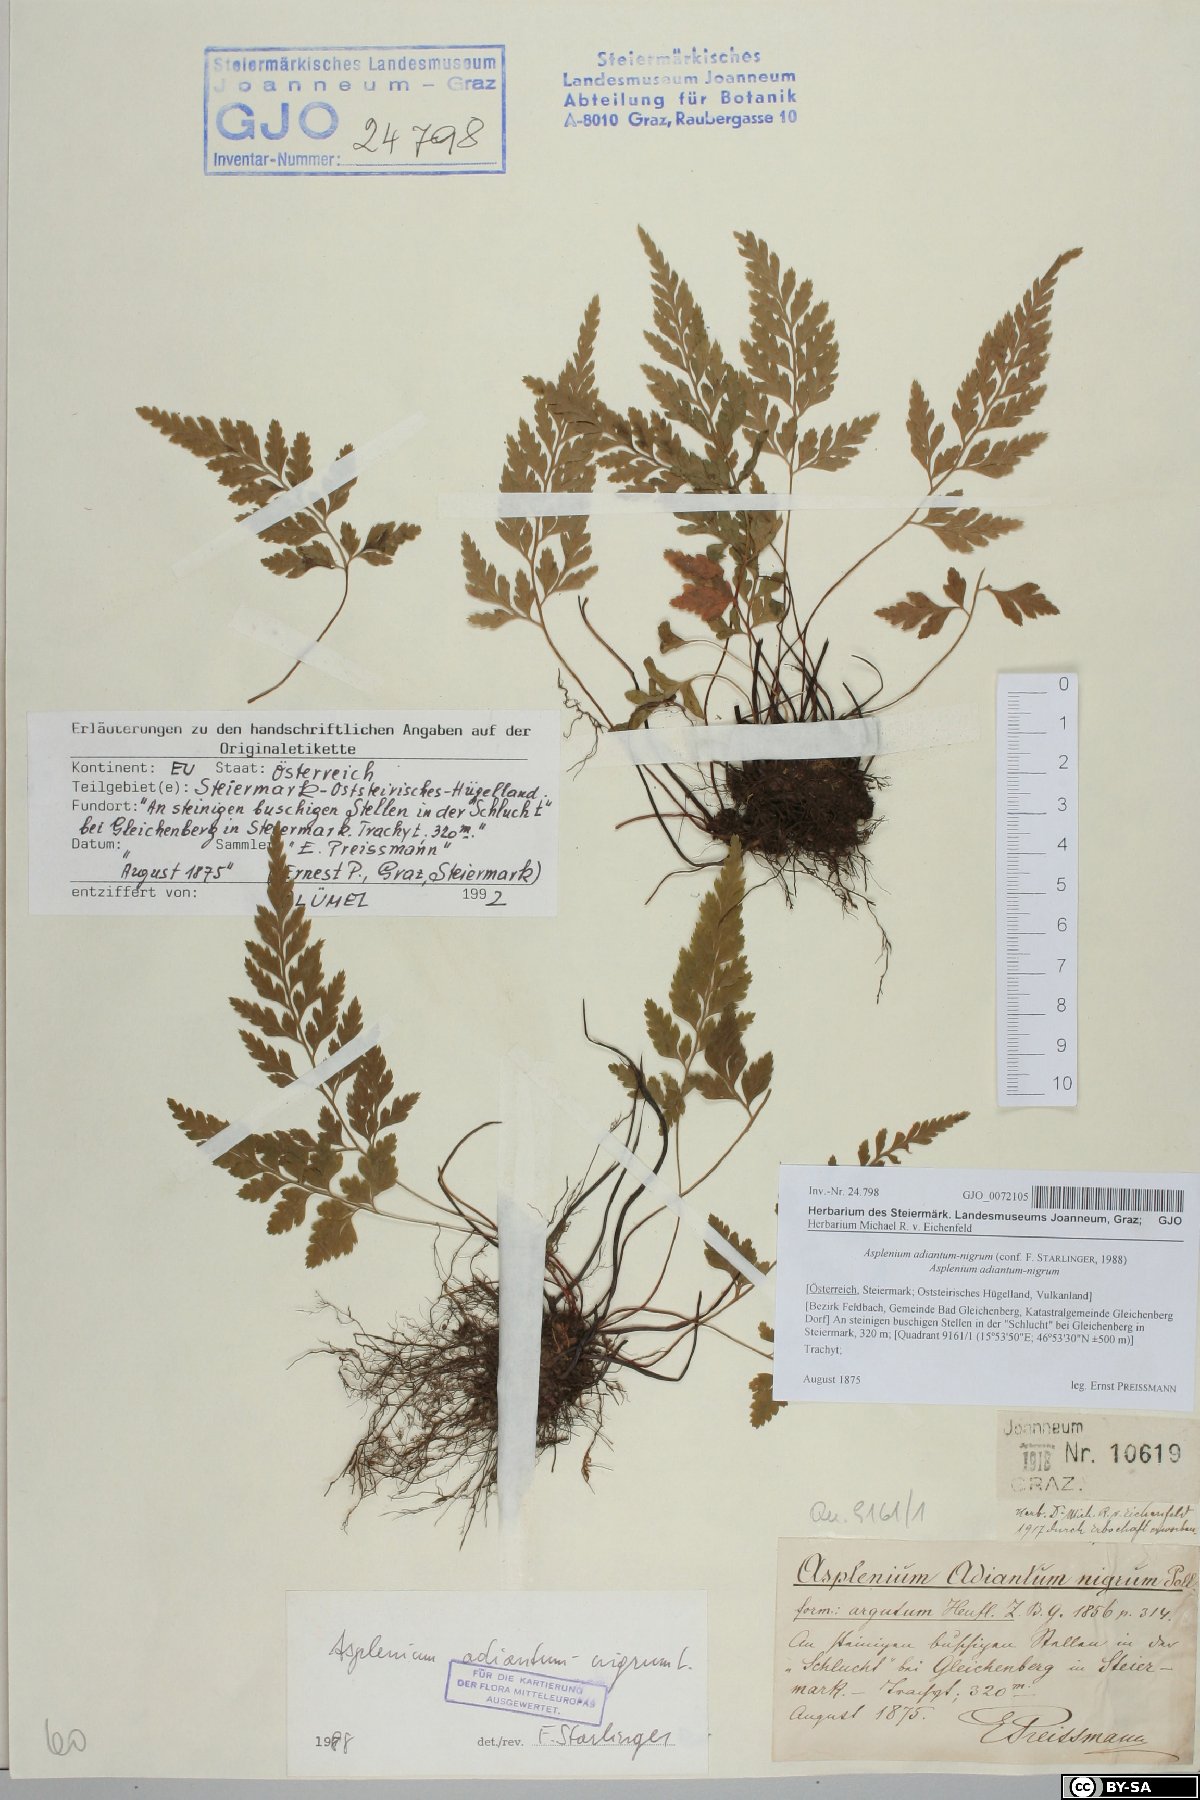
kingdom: Plantae
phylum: Tracheophyta
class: Polypodiopsida
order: Polypodiales
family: Aspleniaceae
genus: Asplenium
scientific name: Asplenium adiantum-nigrum
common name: Black spleenwort
